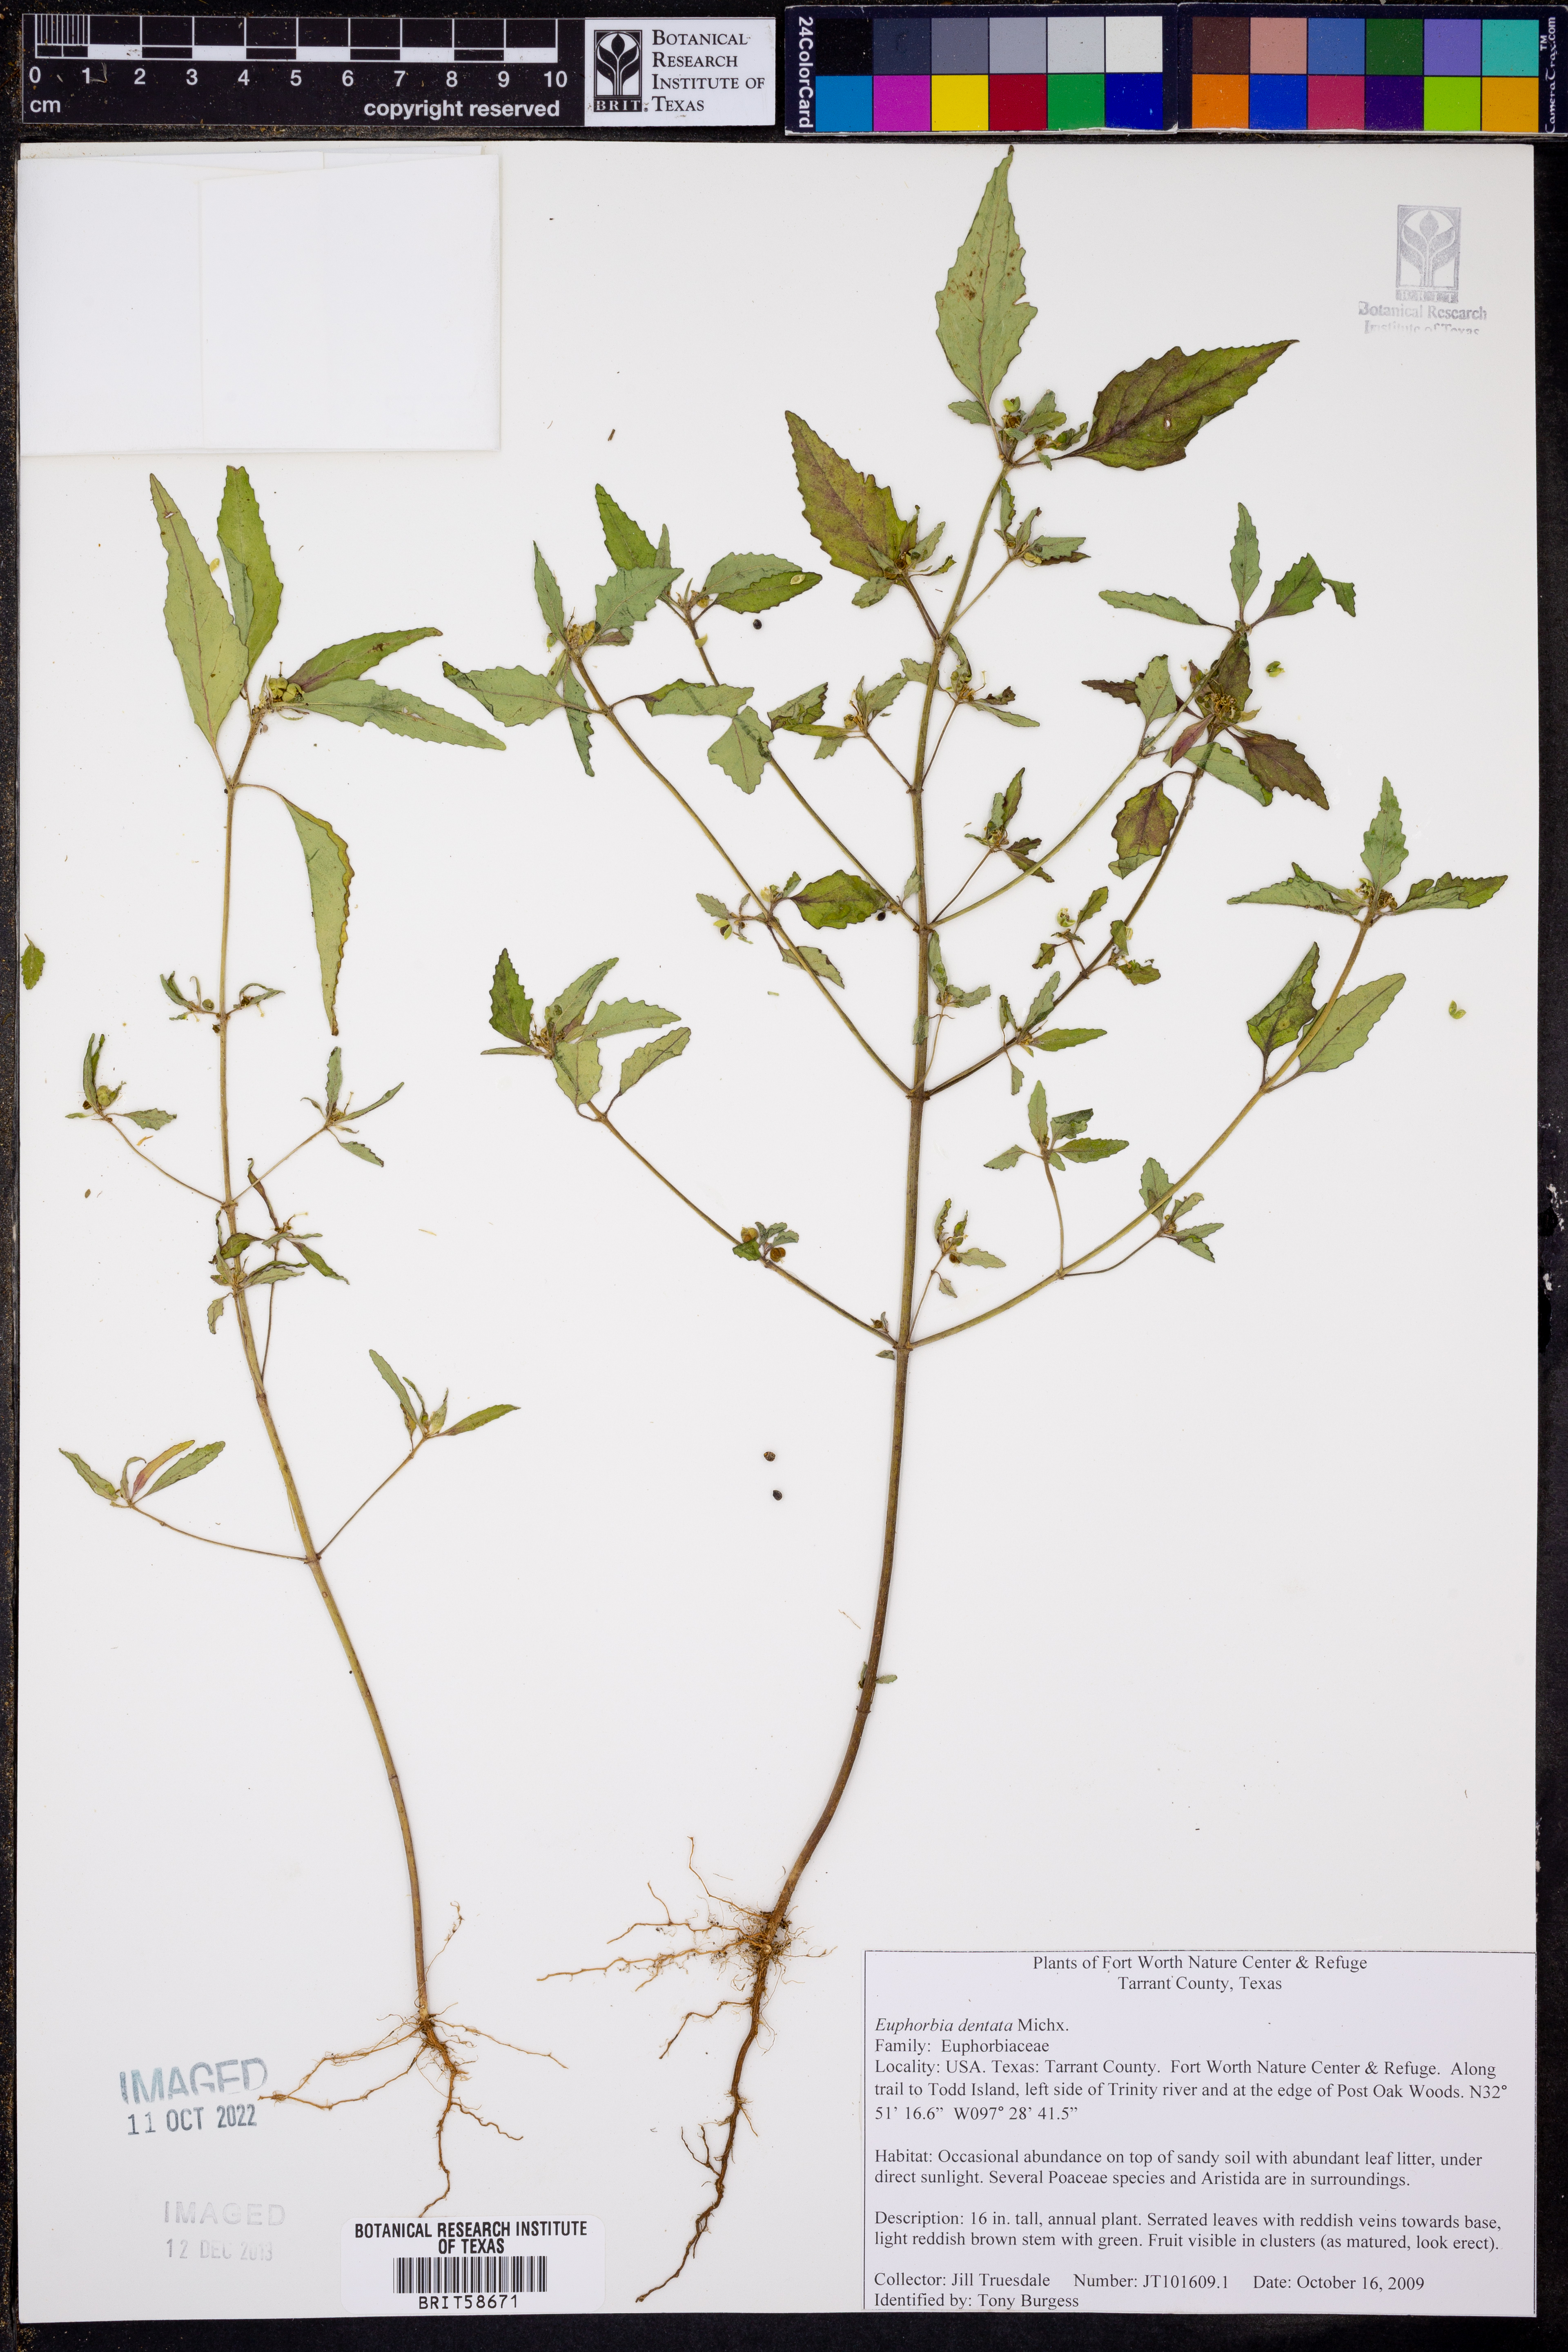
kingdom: Plantae
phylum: Tracheophyta
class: Magnoliopsida
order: Malpighiales
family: Euphorbiaceae
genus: Euphorbia
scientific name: Euphorbia dentata
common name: Dentate spurge
